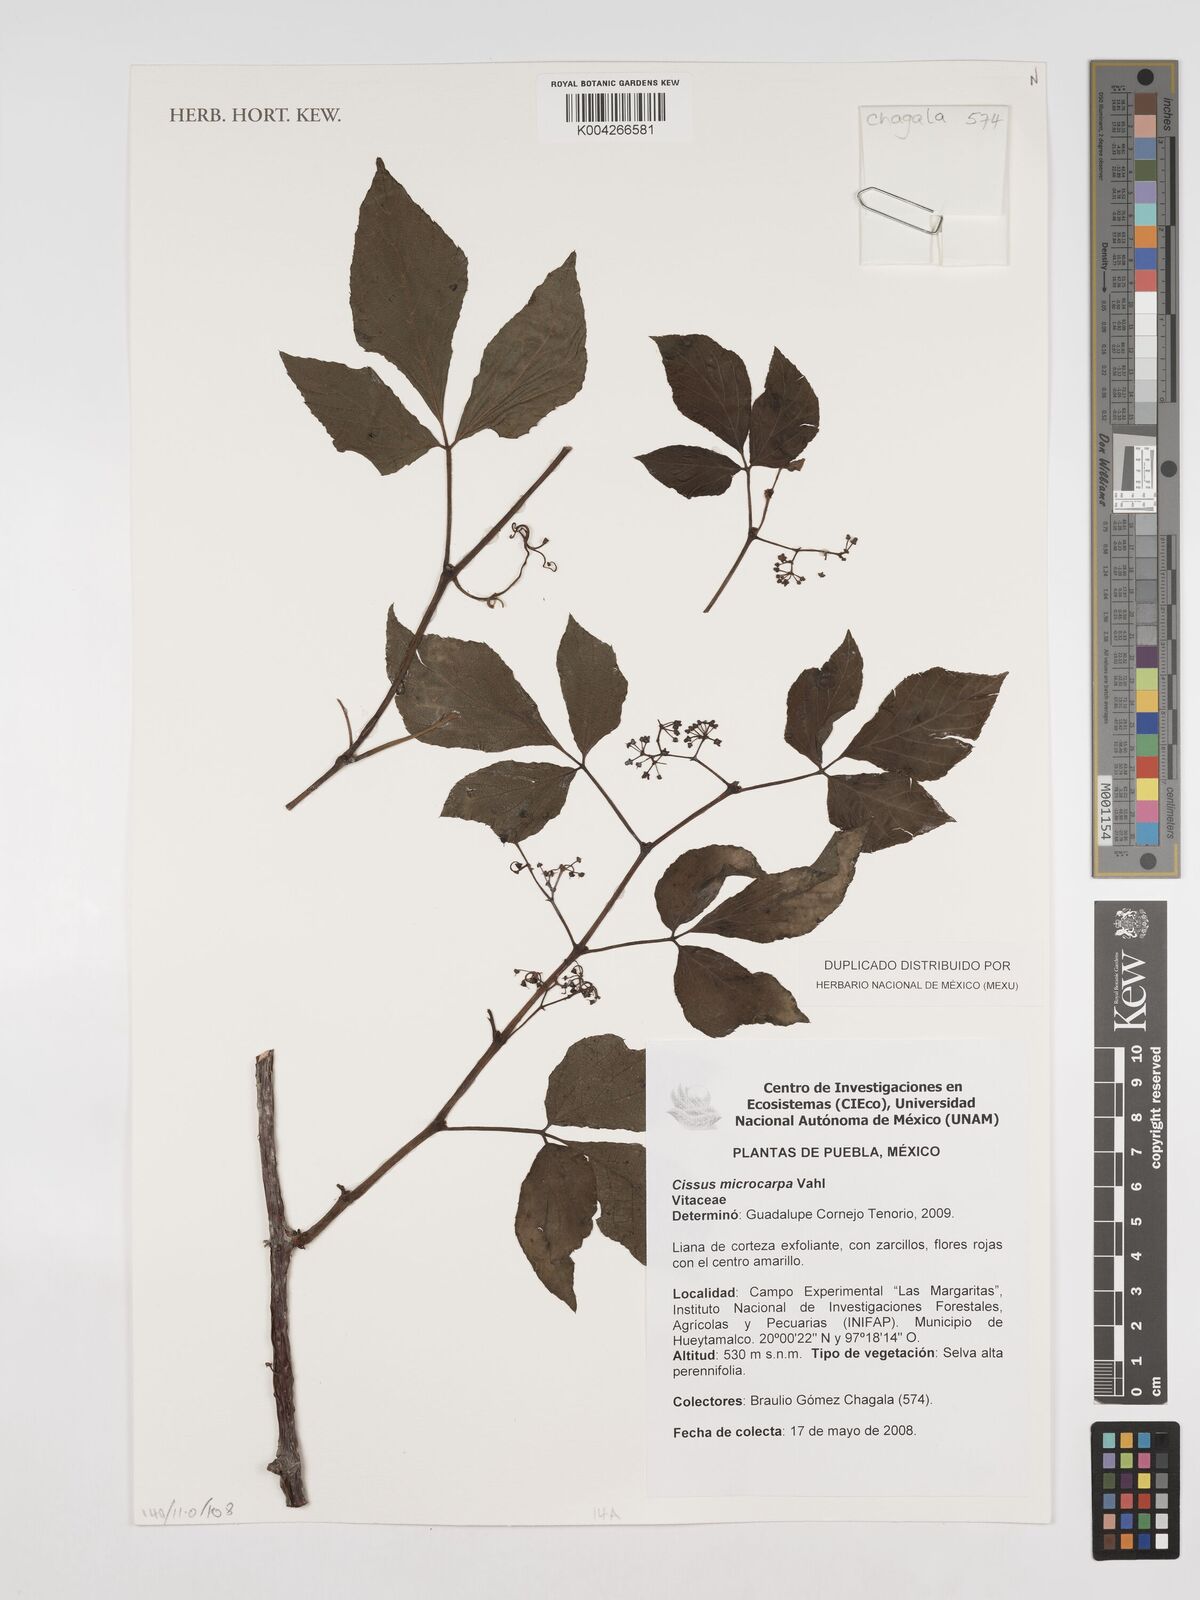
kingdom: Plantae
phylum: Tracheophyta
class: Magnoliopsida
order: Vitales
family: Vitaceae
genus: Cissus
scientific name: Cissus microcarpa
